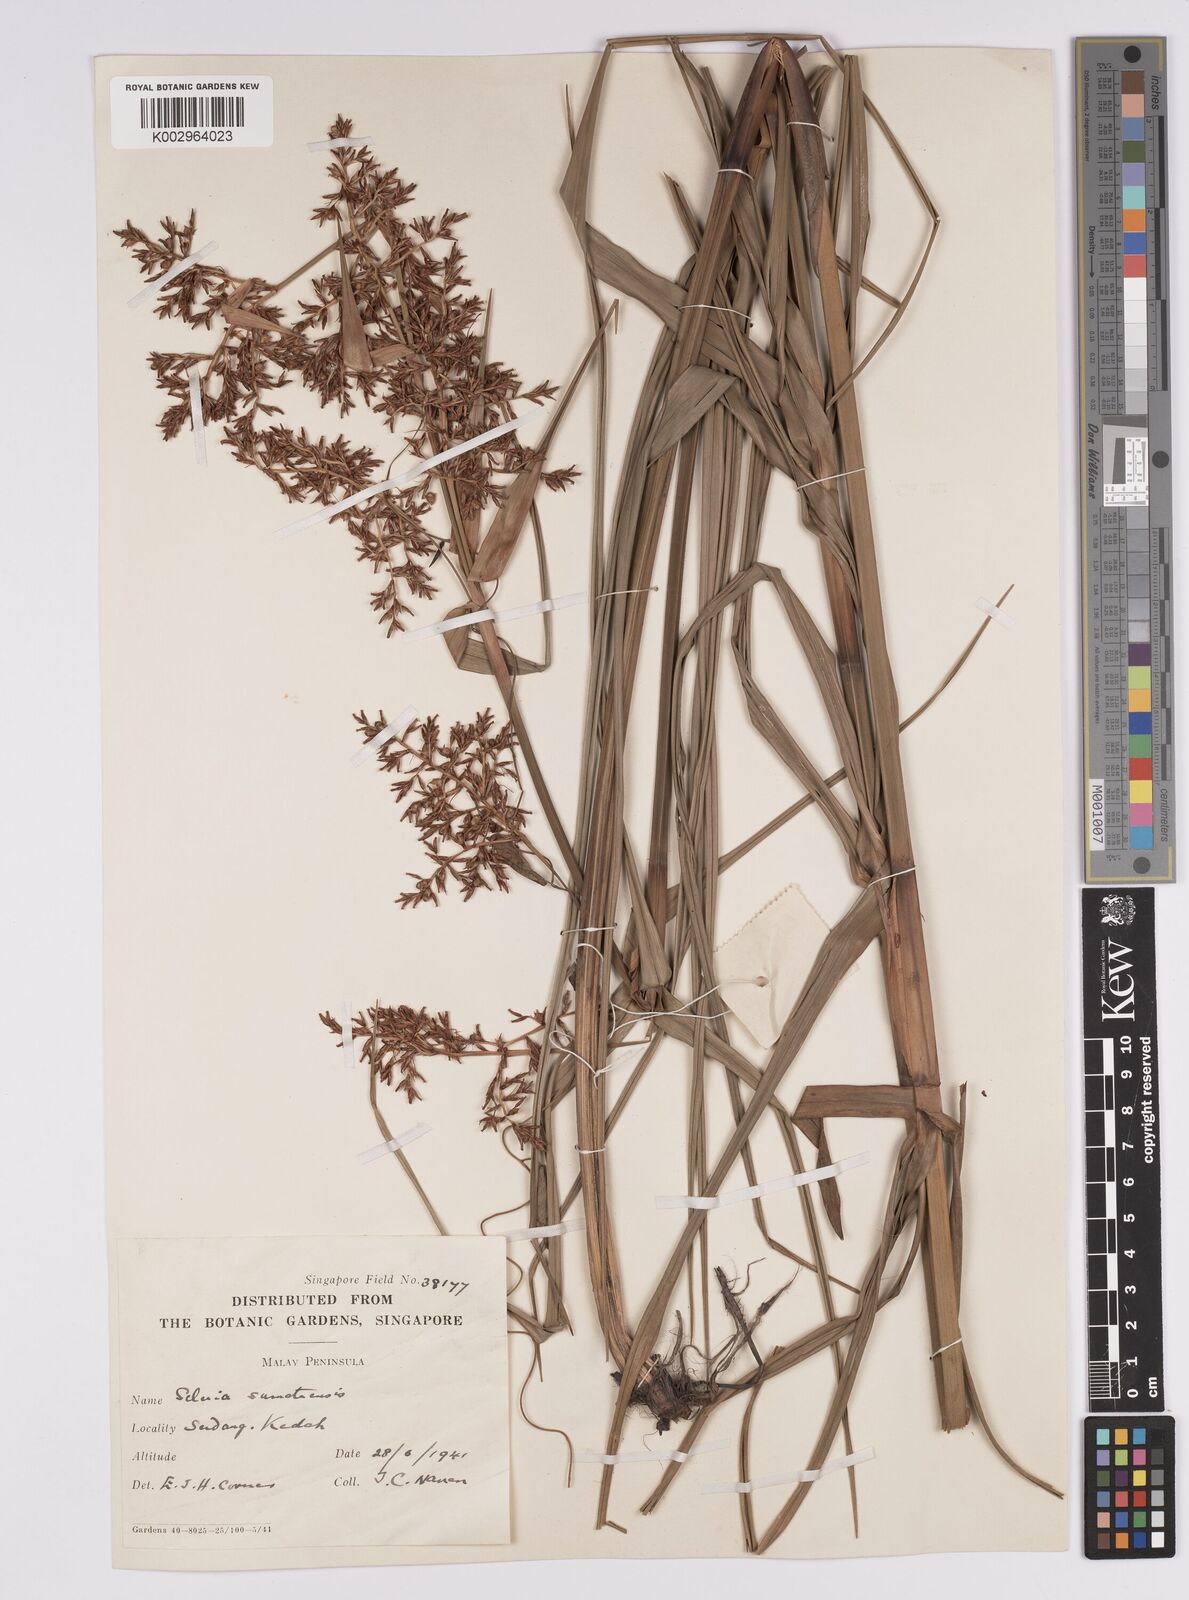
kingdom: Plantae
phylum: Tracheophyta
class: Liliopsida
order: Poales
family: Cyperaceae
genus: Scleria
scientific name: Scleria sumatrensis
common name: Sumatran scleria
